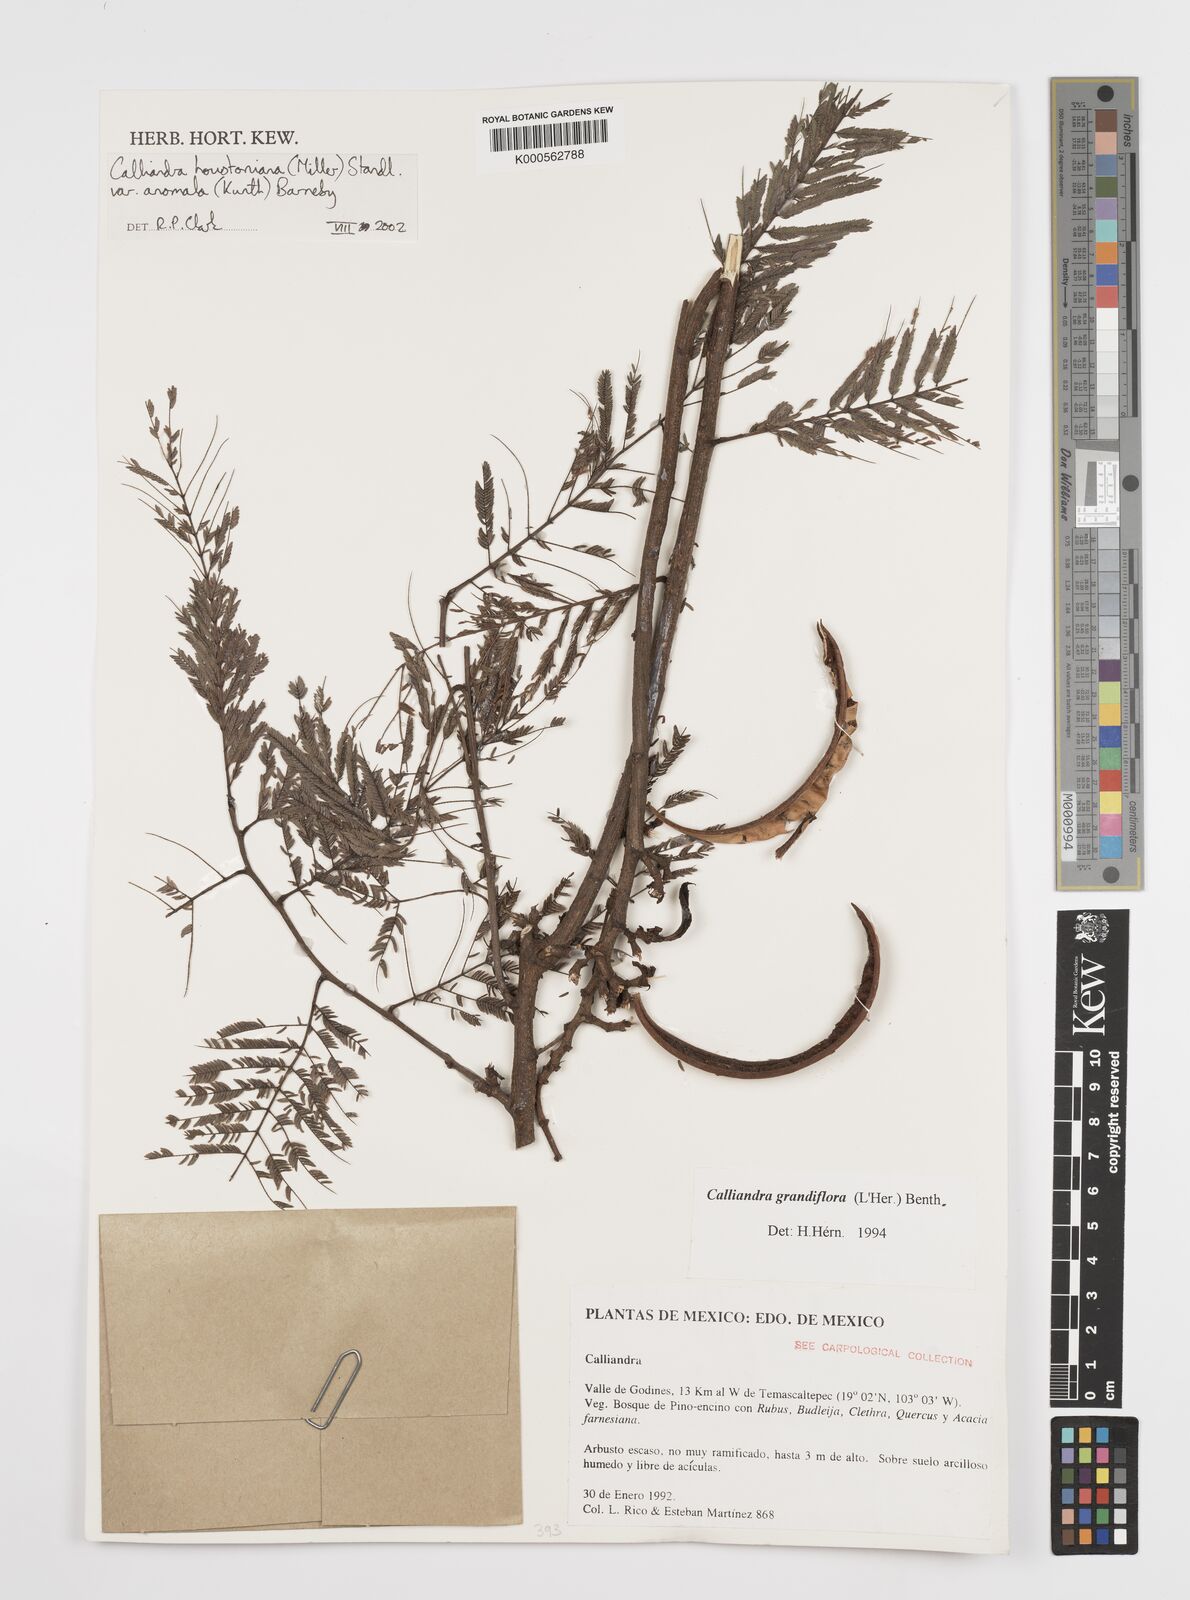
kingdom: Plantae
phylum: Tracheophyta
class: Magnoliopsida
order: Fabales
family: Fabaceae
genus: Calliandra
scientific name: Calliandra houstoniana
